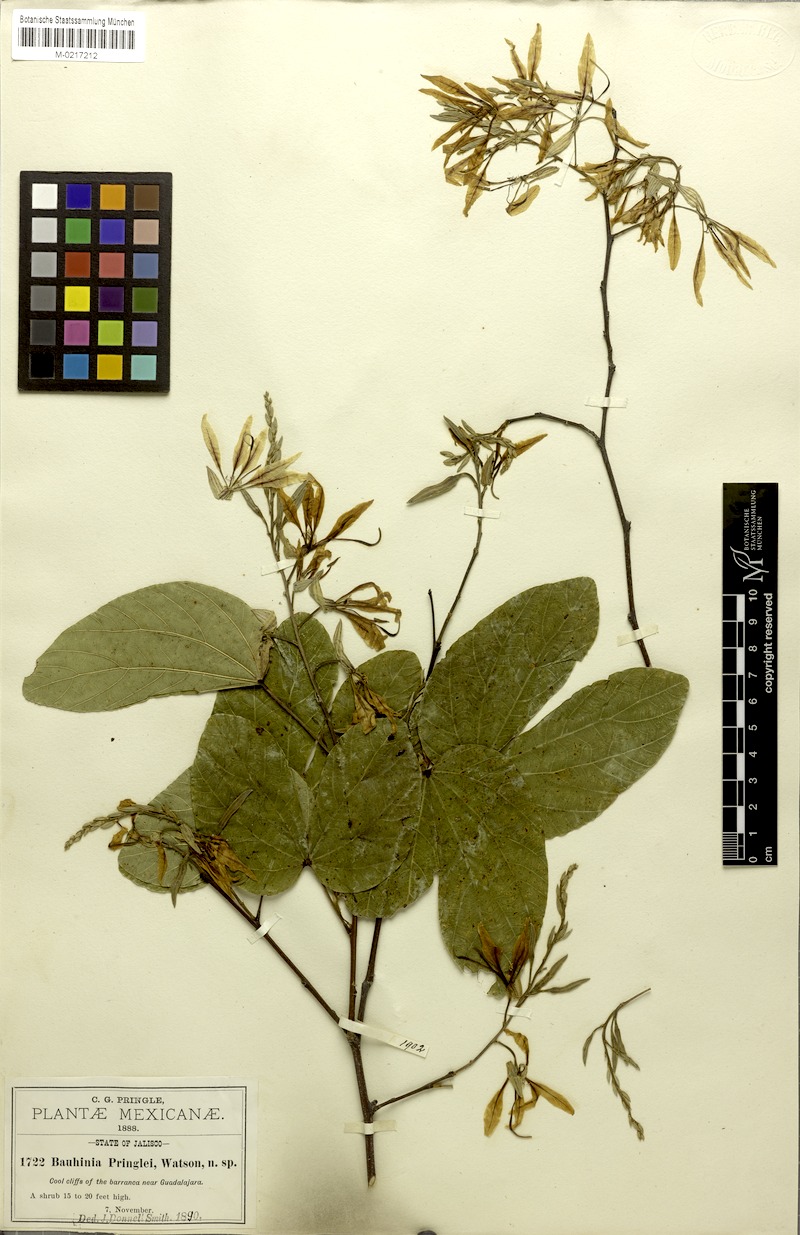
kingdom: Plantae
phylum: Tracheophyta
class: Magnoliopsida
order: Fabales
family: Fabaceae
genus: Bauhinia
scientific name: Bauhinia pringlei
